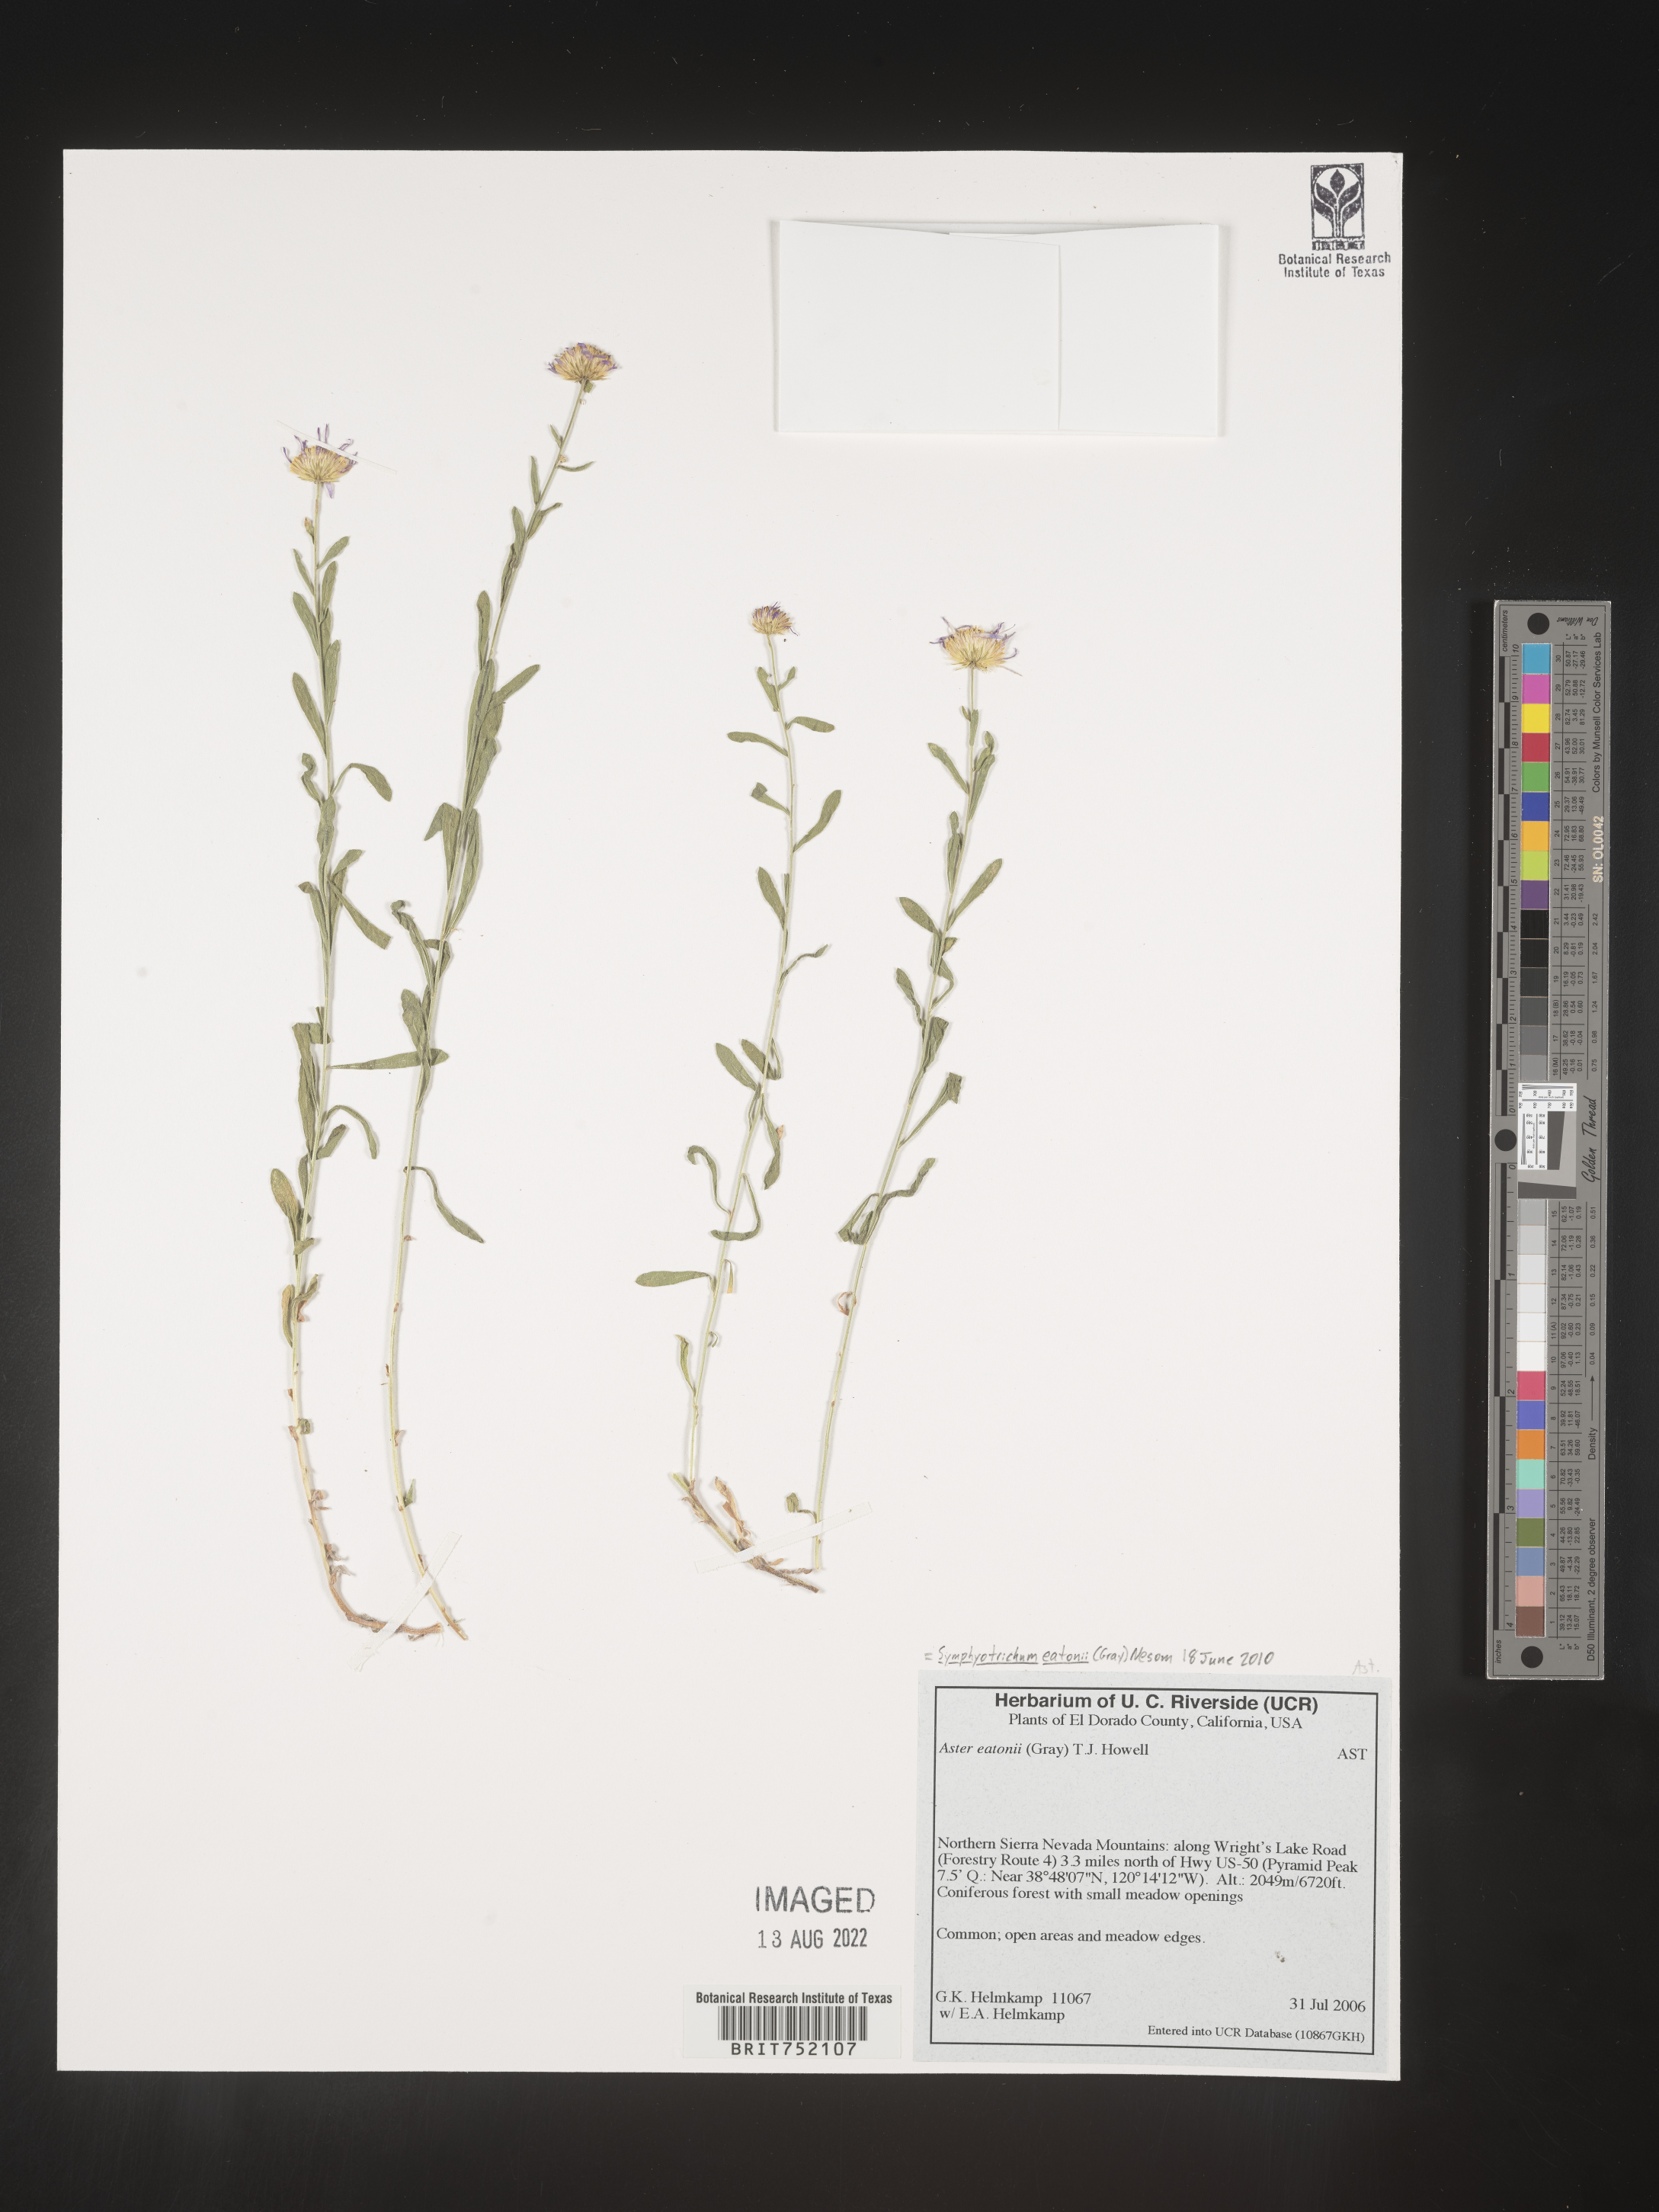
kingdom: Plantae
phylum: Tracheophyta
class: Magnoliopsida
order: Asterales
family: Asteraceae
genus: Symphyotrichum
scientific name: Symphyotrichum bracteolatum
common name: Eaton's aster
